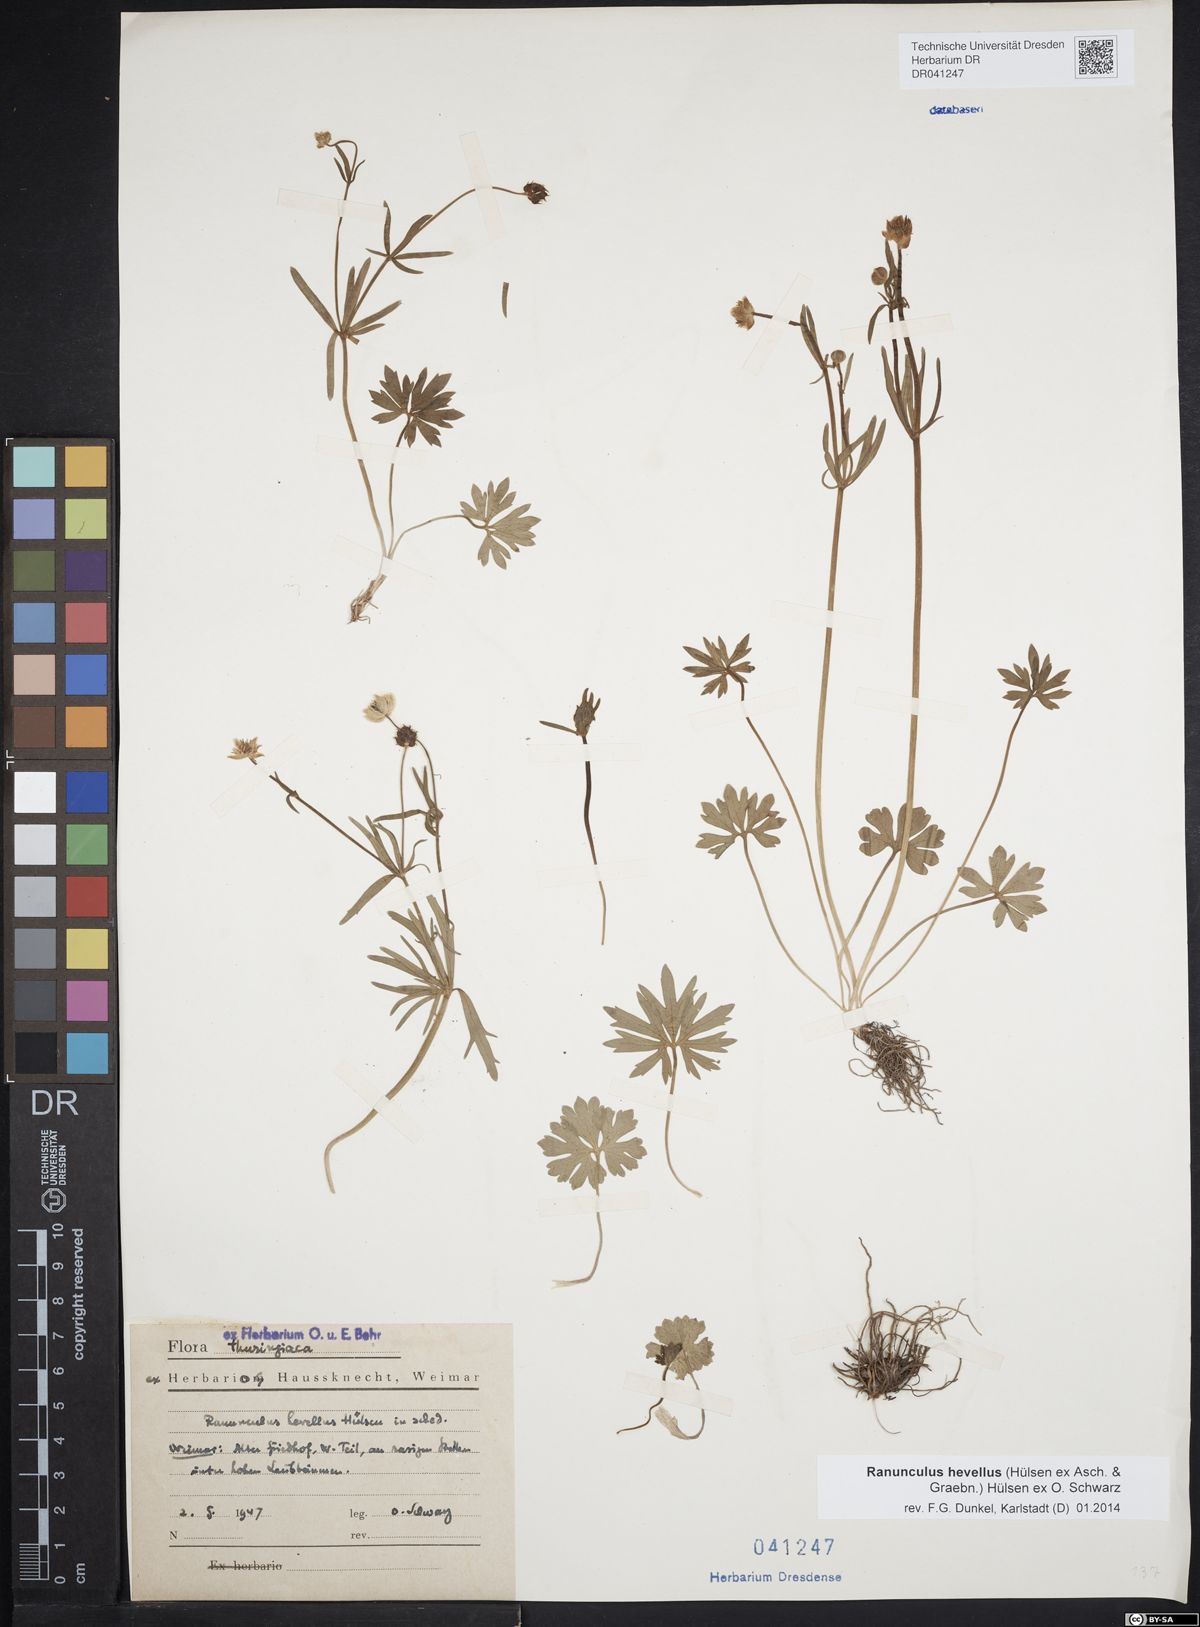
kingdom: Plantae
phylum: Tracheophyta
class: Magnoliopsida
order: Ranunculales
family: Ranunculaceae
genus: Ranunculus
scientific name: Ranunculus hevellus
